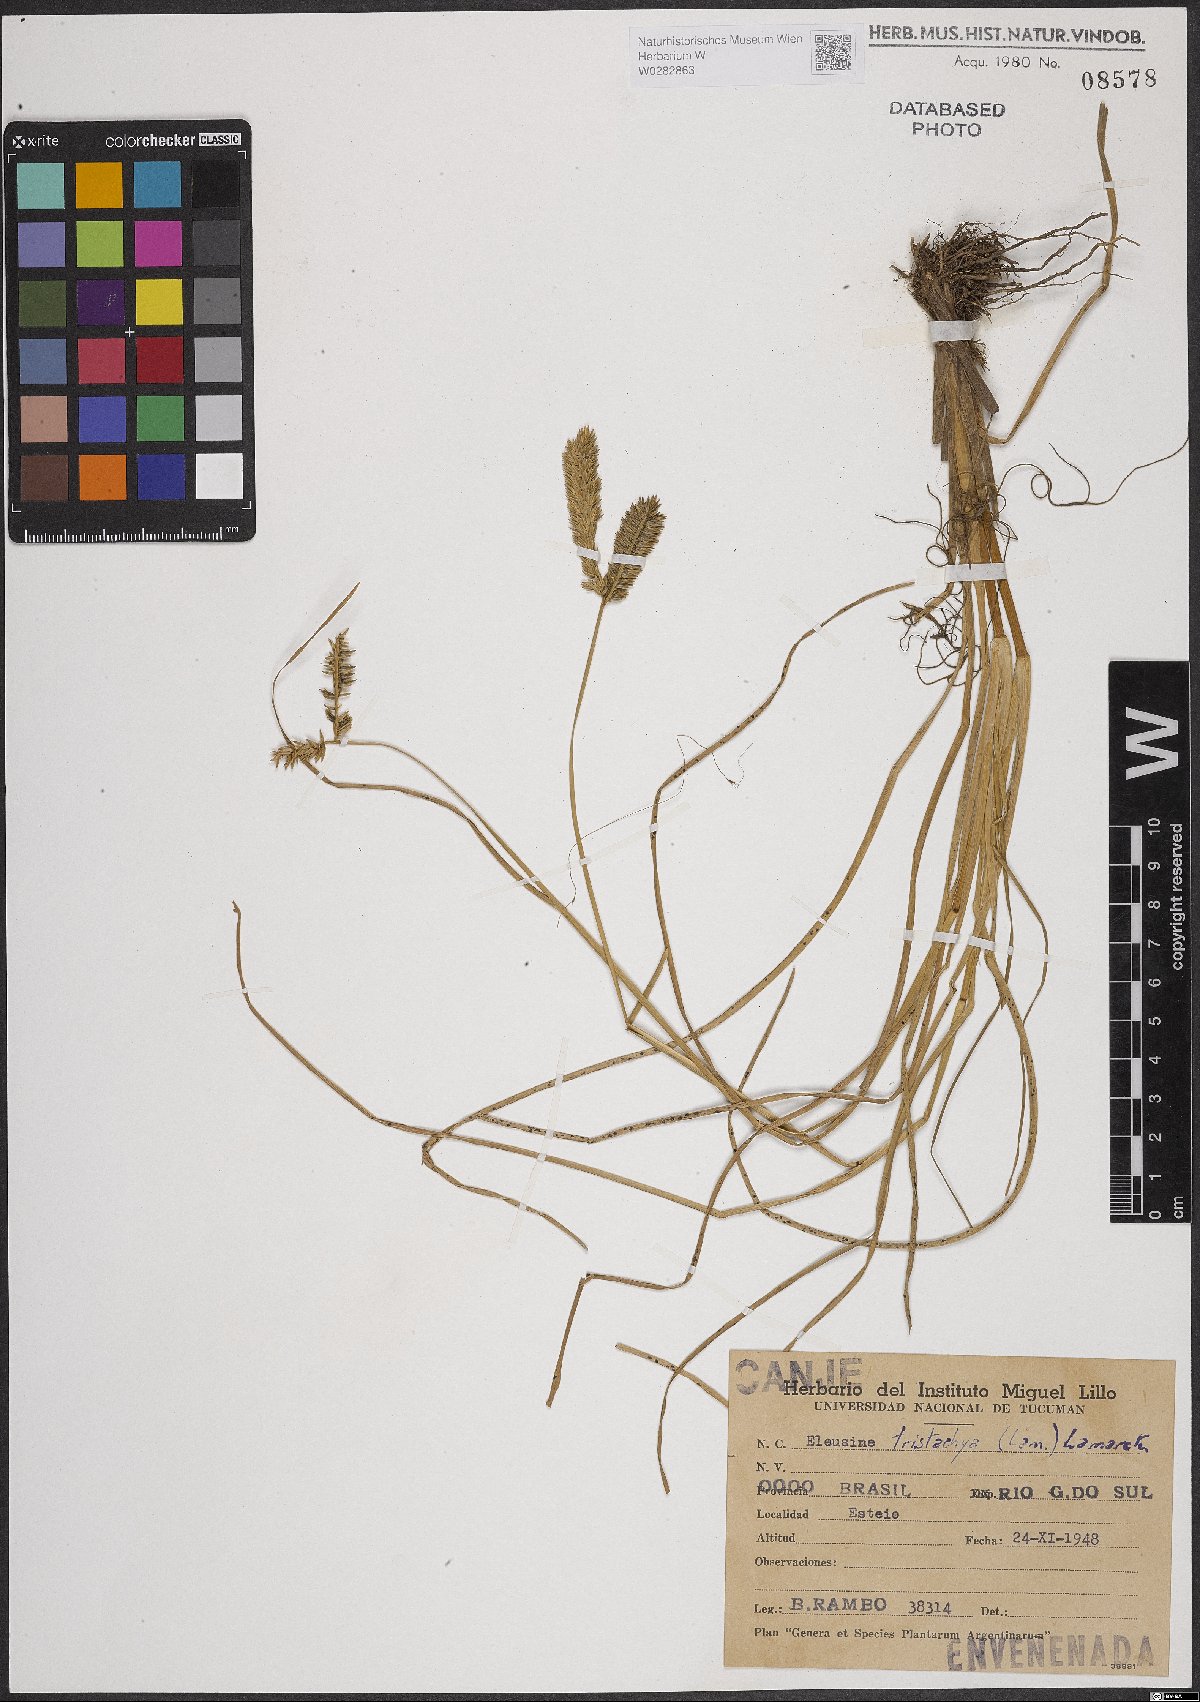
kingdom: Plantae
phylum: Tracheophyta
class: Liliopsida
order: Poales
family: Poaceae
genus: Eleusine
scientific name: Eleusine tristachya
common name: American yard-grass
